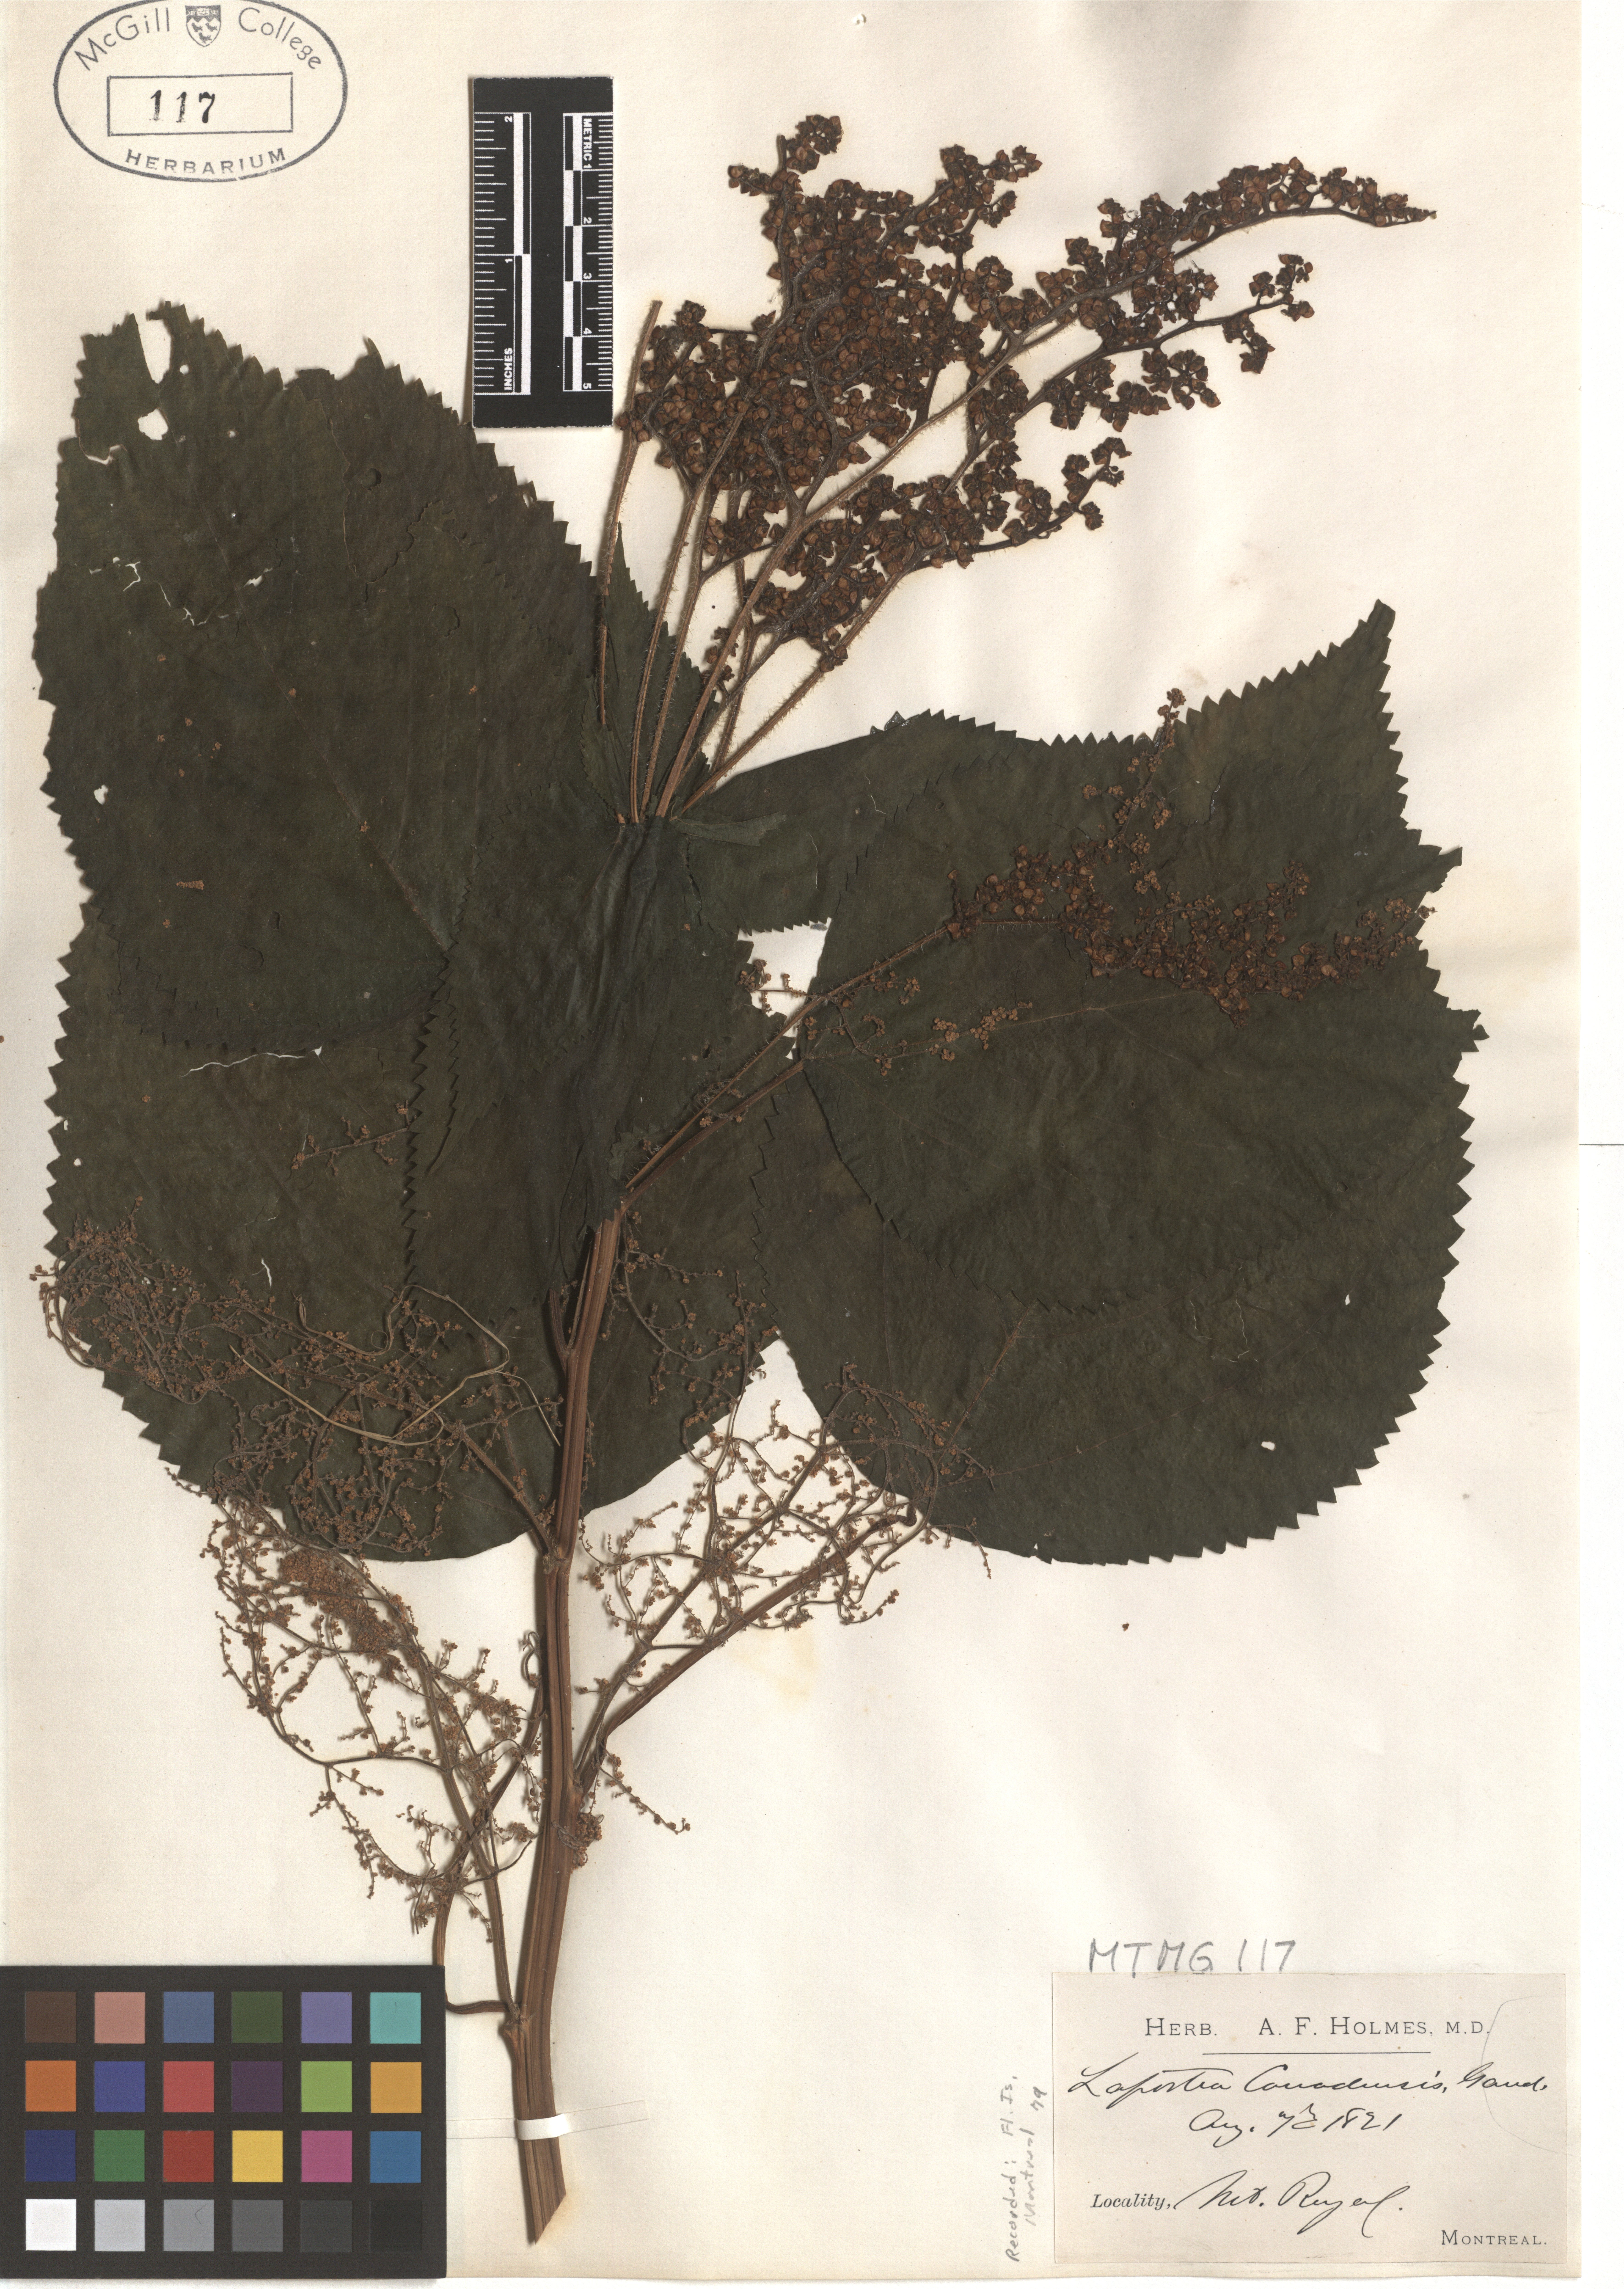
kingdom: Plantae
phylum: Tracheophyta
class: Magnoliopsida
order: Rosales
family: Urticaceae
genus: Laportea
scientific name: Laportea canadensis
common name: Canada nettle
